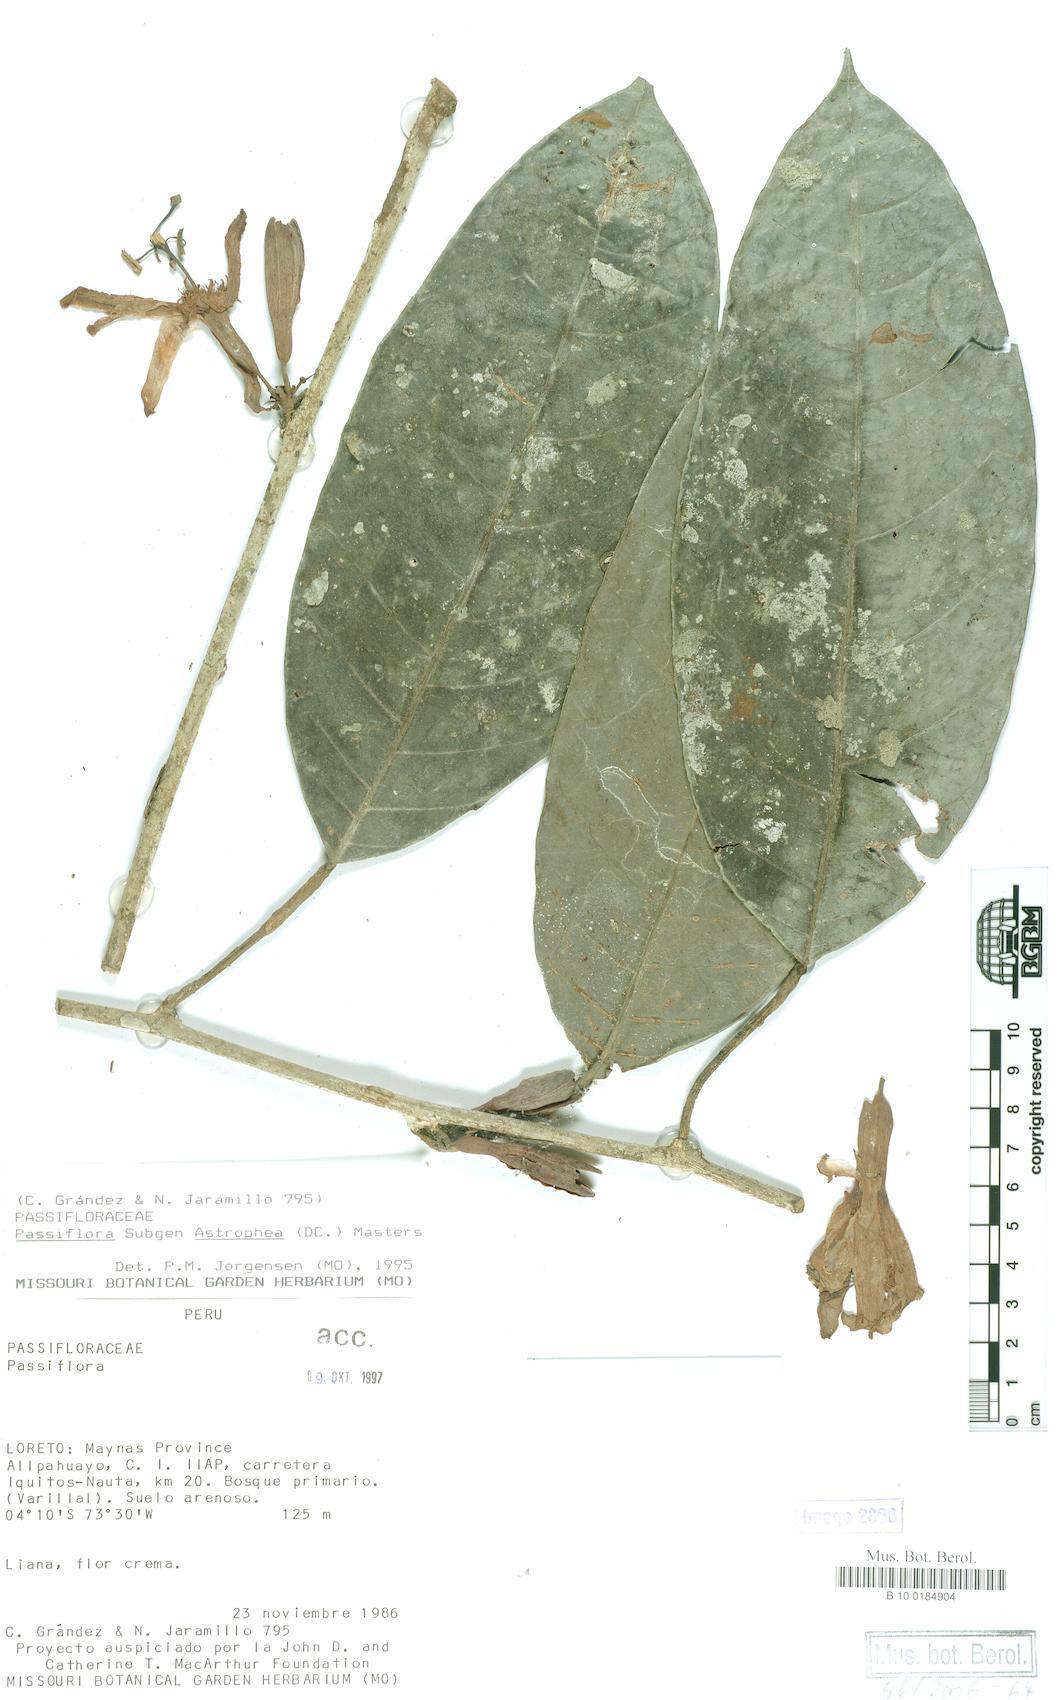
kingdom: Plantae
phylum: Tracheophyta
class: Magnoliopsida
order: Malpighiales
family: Passifloraceae
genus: Passiflora
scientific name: Passiflora
